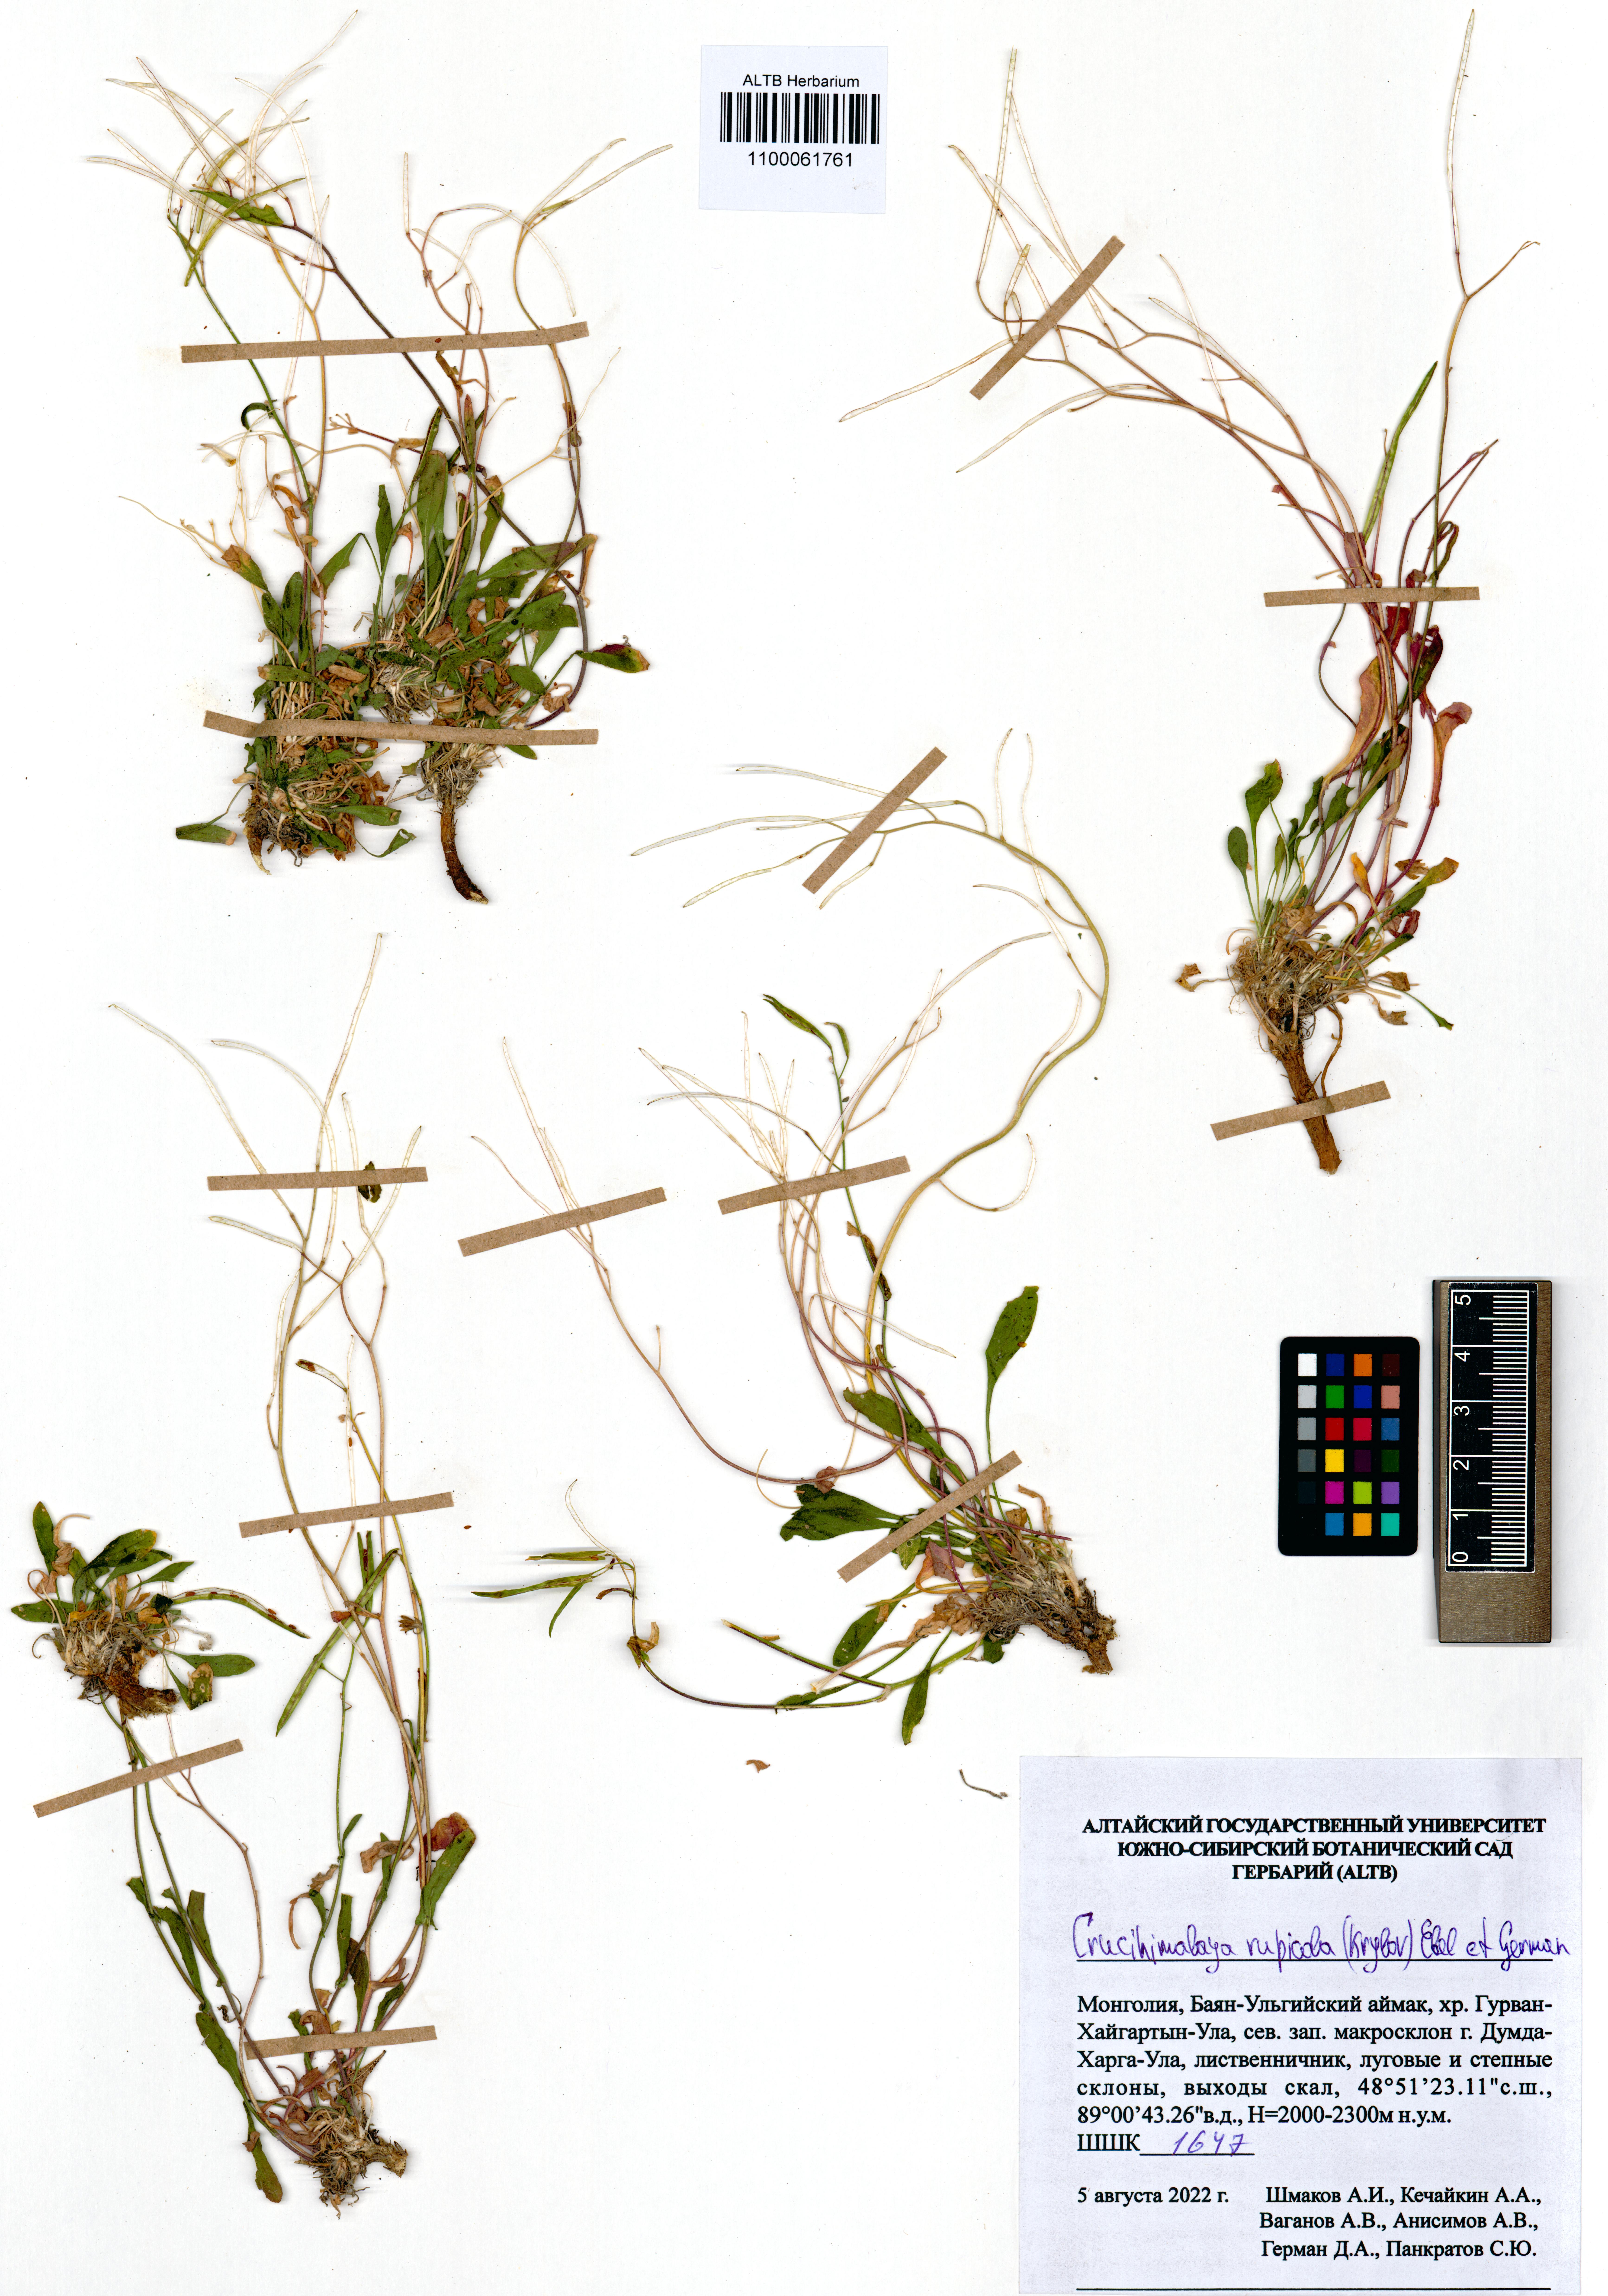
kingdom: Plantae
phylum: Tracheophyta
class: Magnoliopsida
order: Brassicales
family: Brassicaceae
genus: Crucihimalaya
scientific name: Crucihimalaya rupicola
